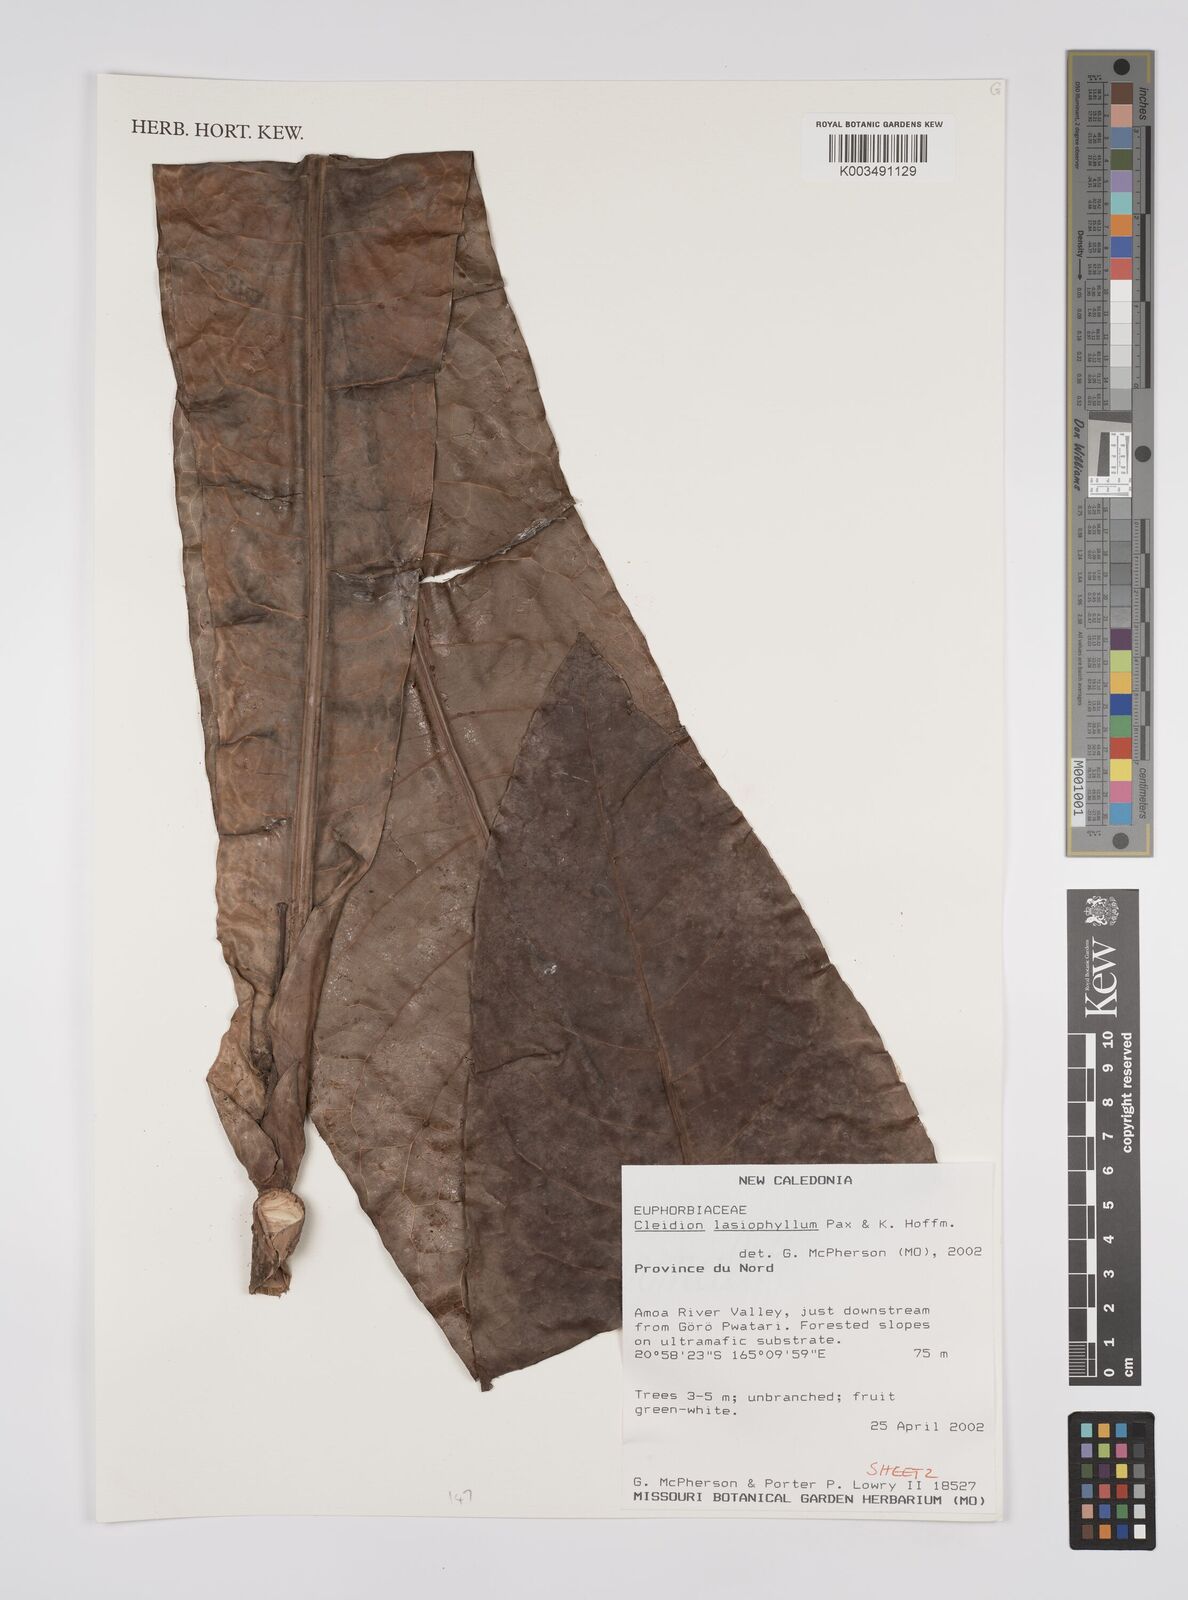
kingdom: Plantae
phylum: Tracheophyta
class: Magnoliopsida
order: Malpighiales
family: Euphorbiaceae
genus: Cleidion
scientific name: Cleidion lasiophyllum
